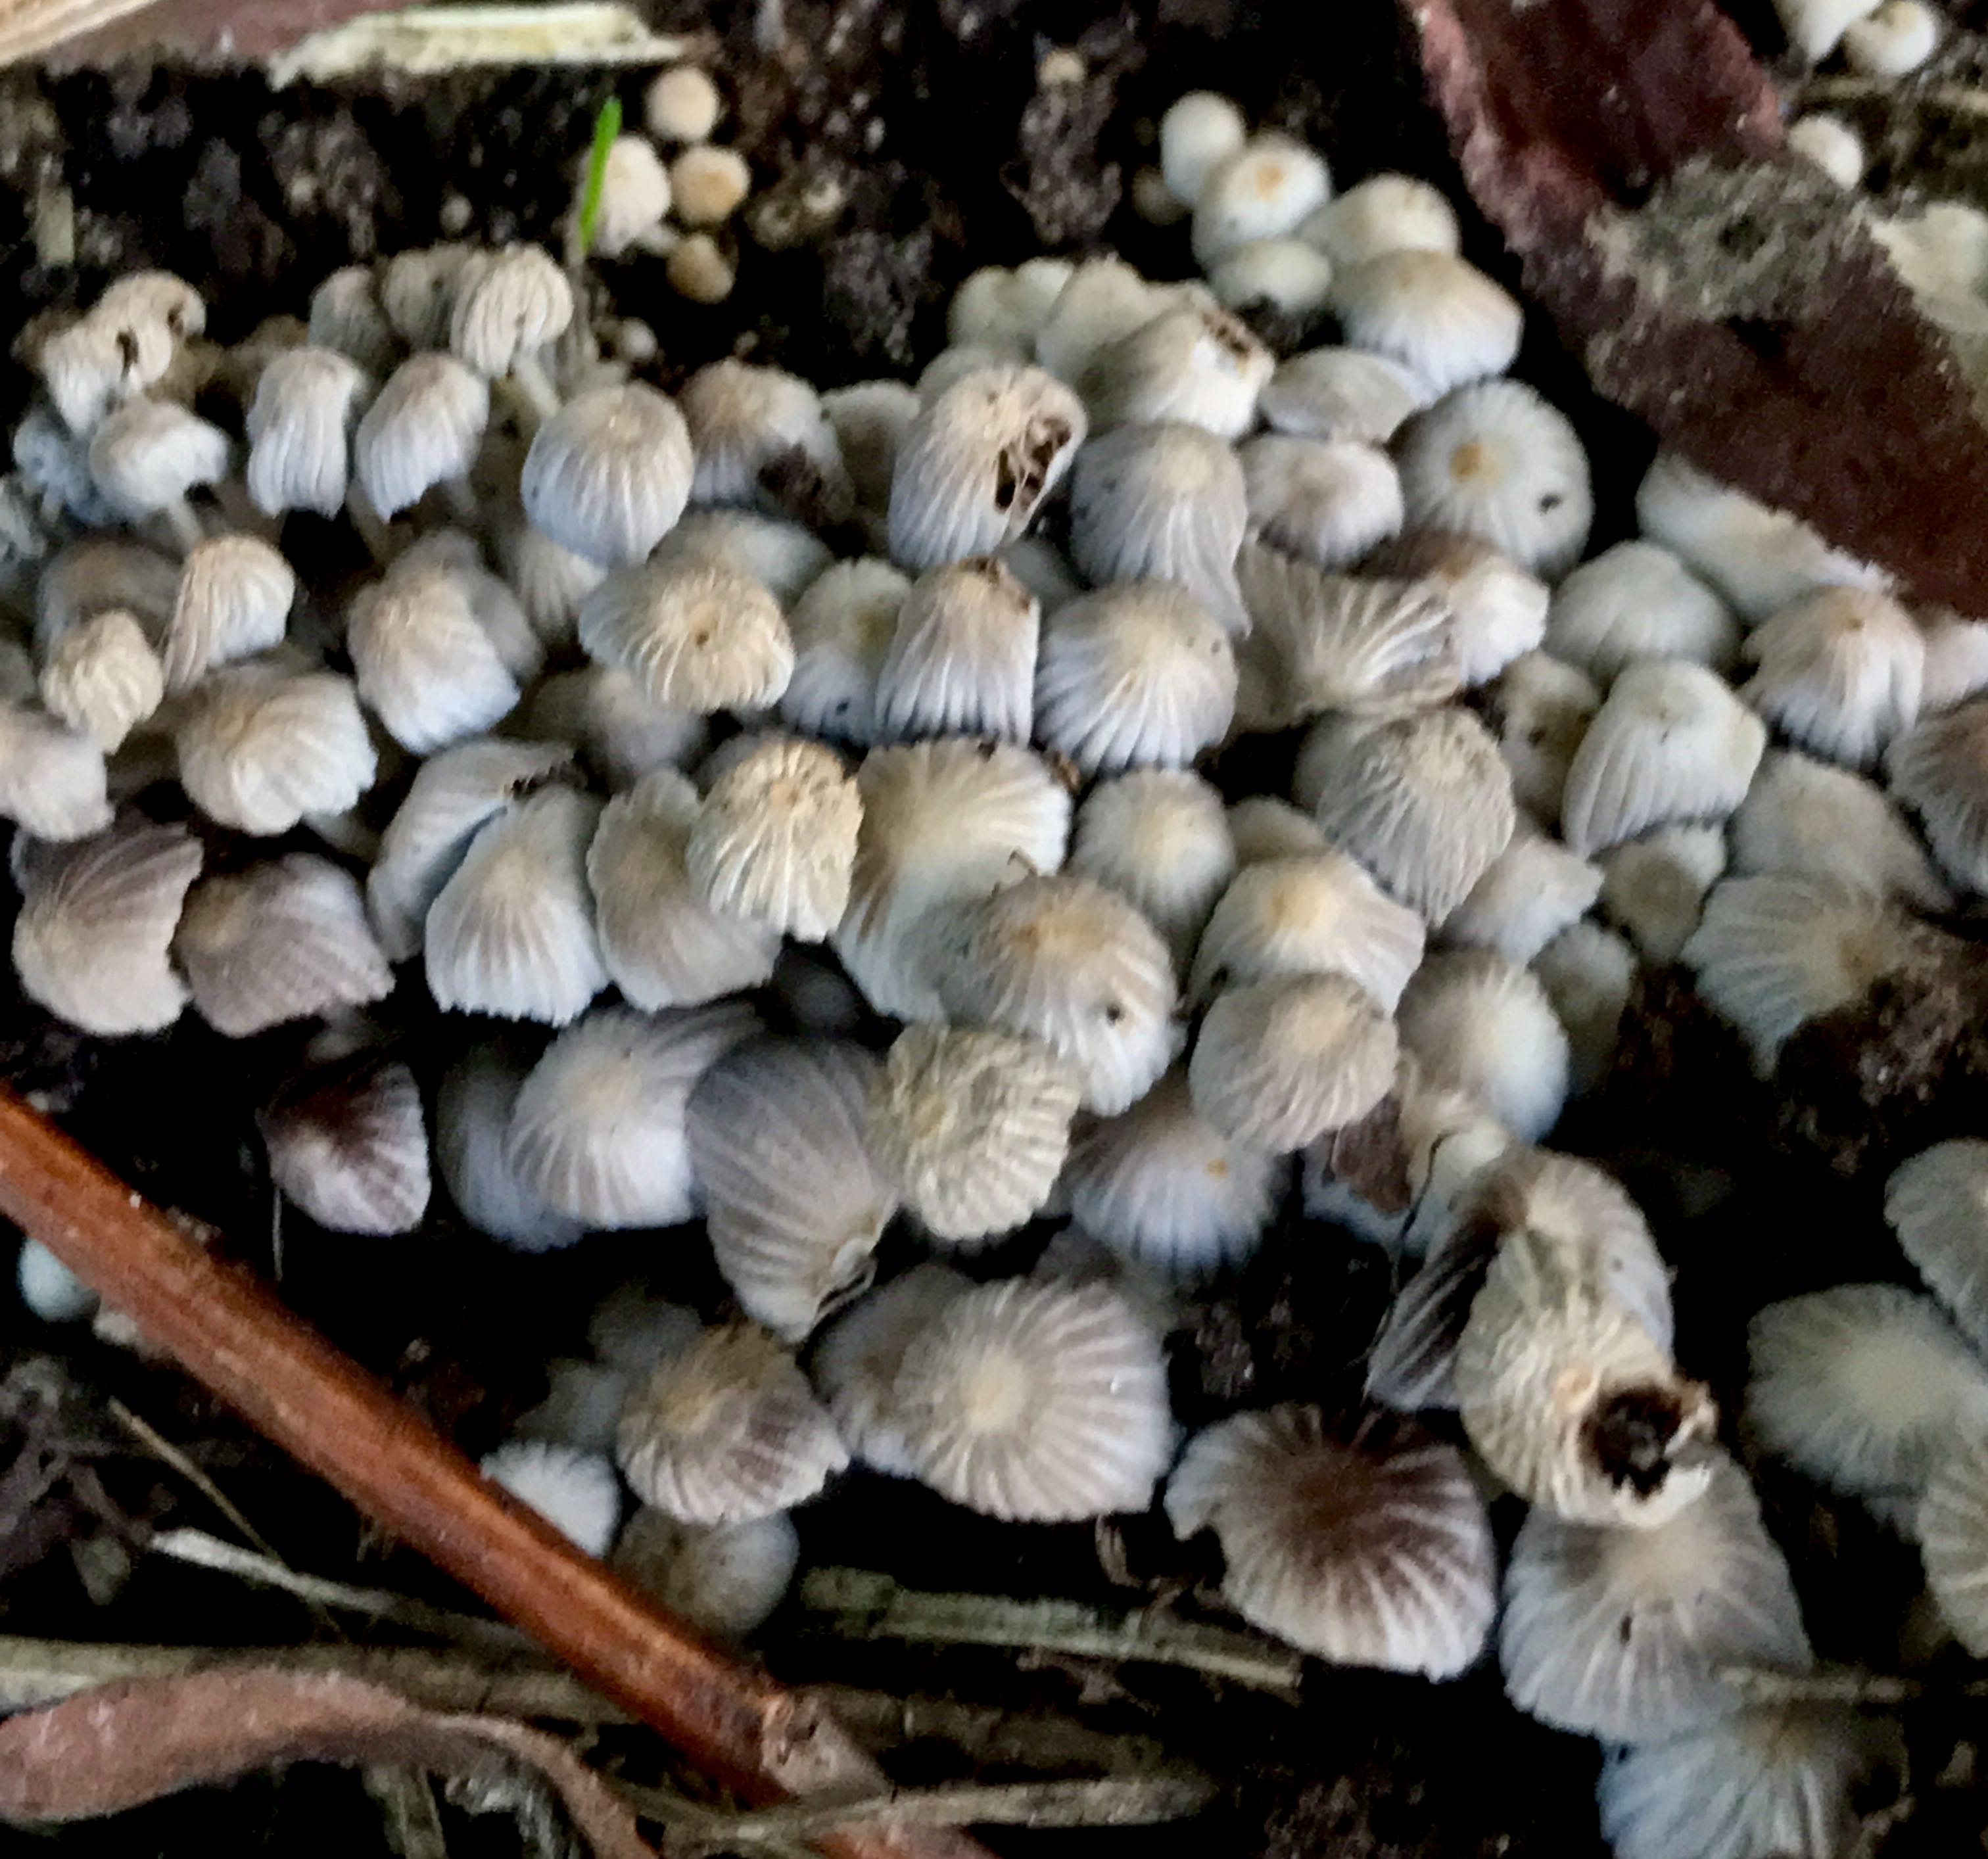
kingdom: Fungi
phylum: Basidiomycota
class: Agaricomycetes
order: Agaricales
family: Psathyrellaceae
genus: Coprinellus
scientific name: Coprinellus disseminatus
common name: bredsået blækhat
